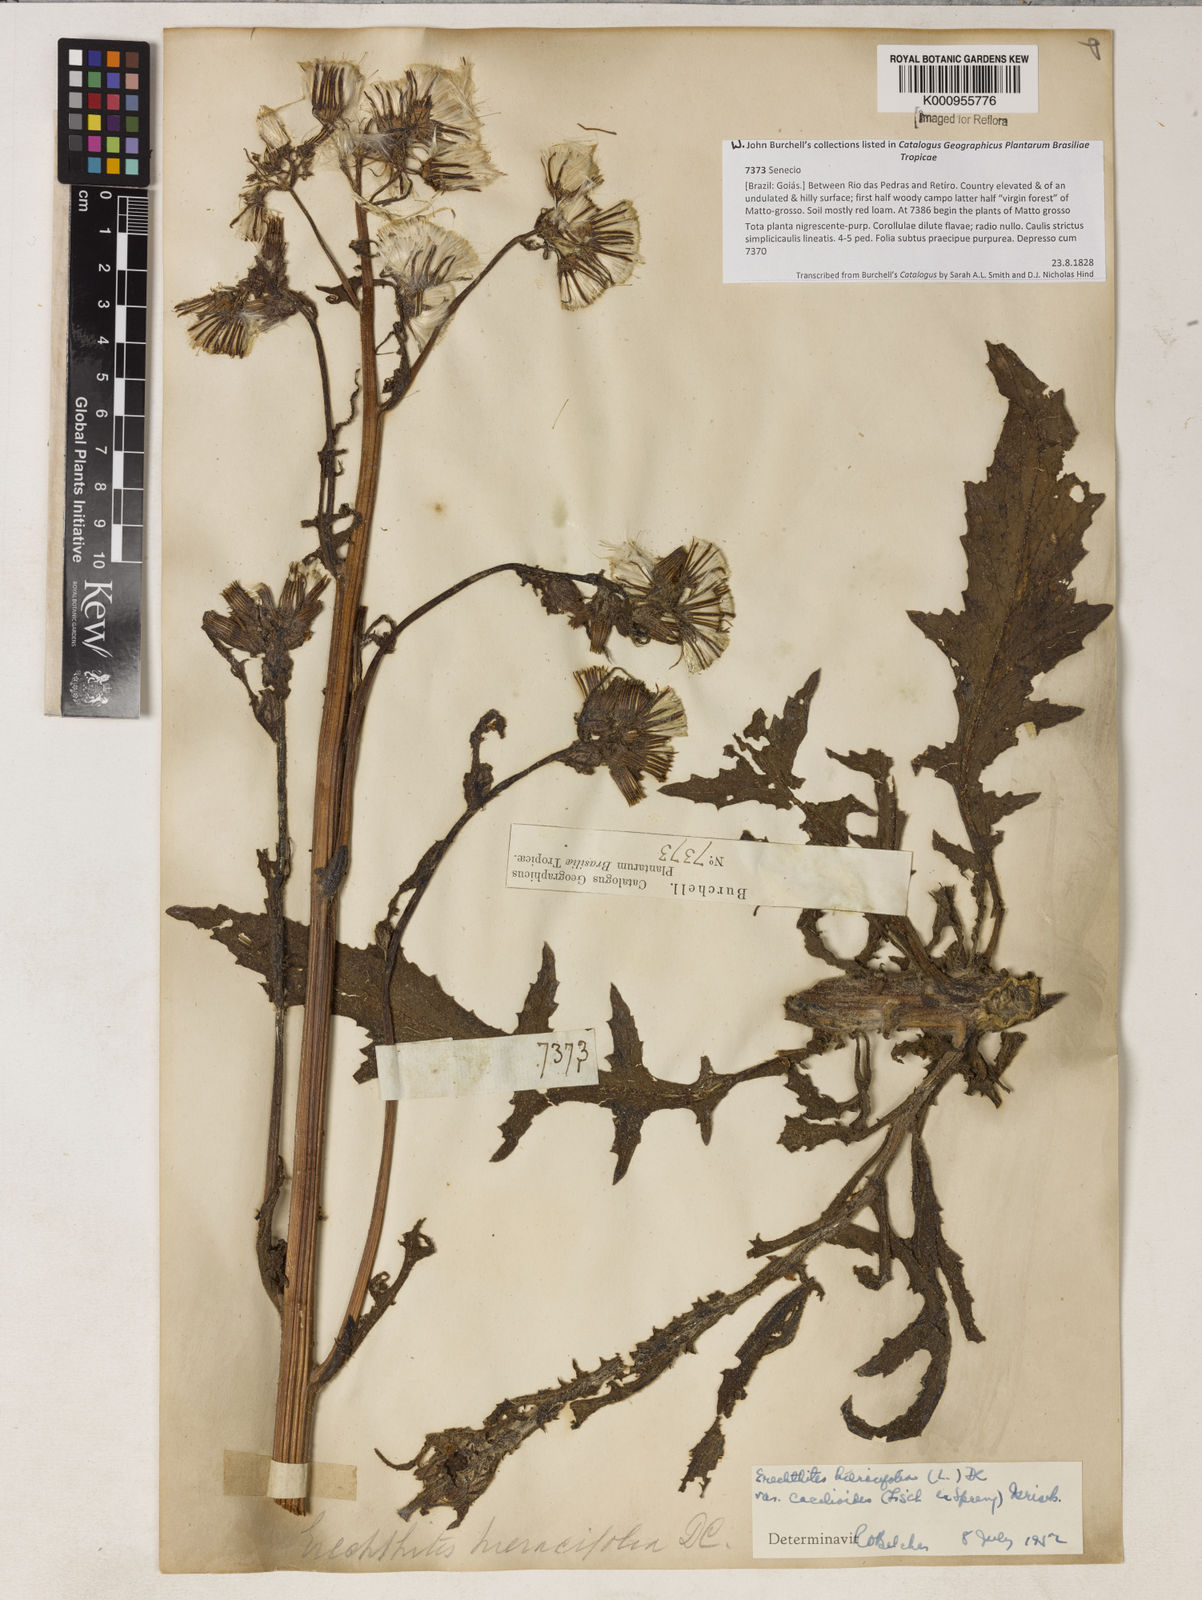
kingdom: Plantae
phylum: Tracheophyta
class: Magnoliopsida
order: Asterales
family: Asteraceae
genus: Erechtites
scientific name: Erechtites hieraciifolius
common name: American burnweed
